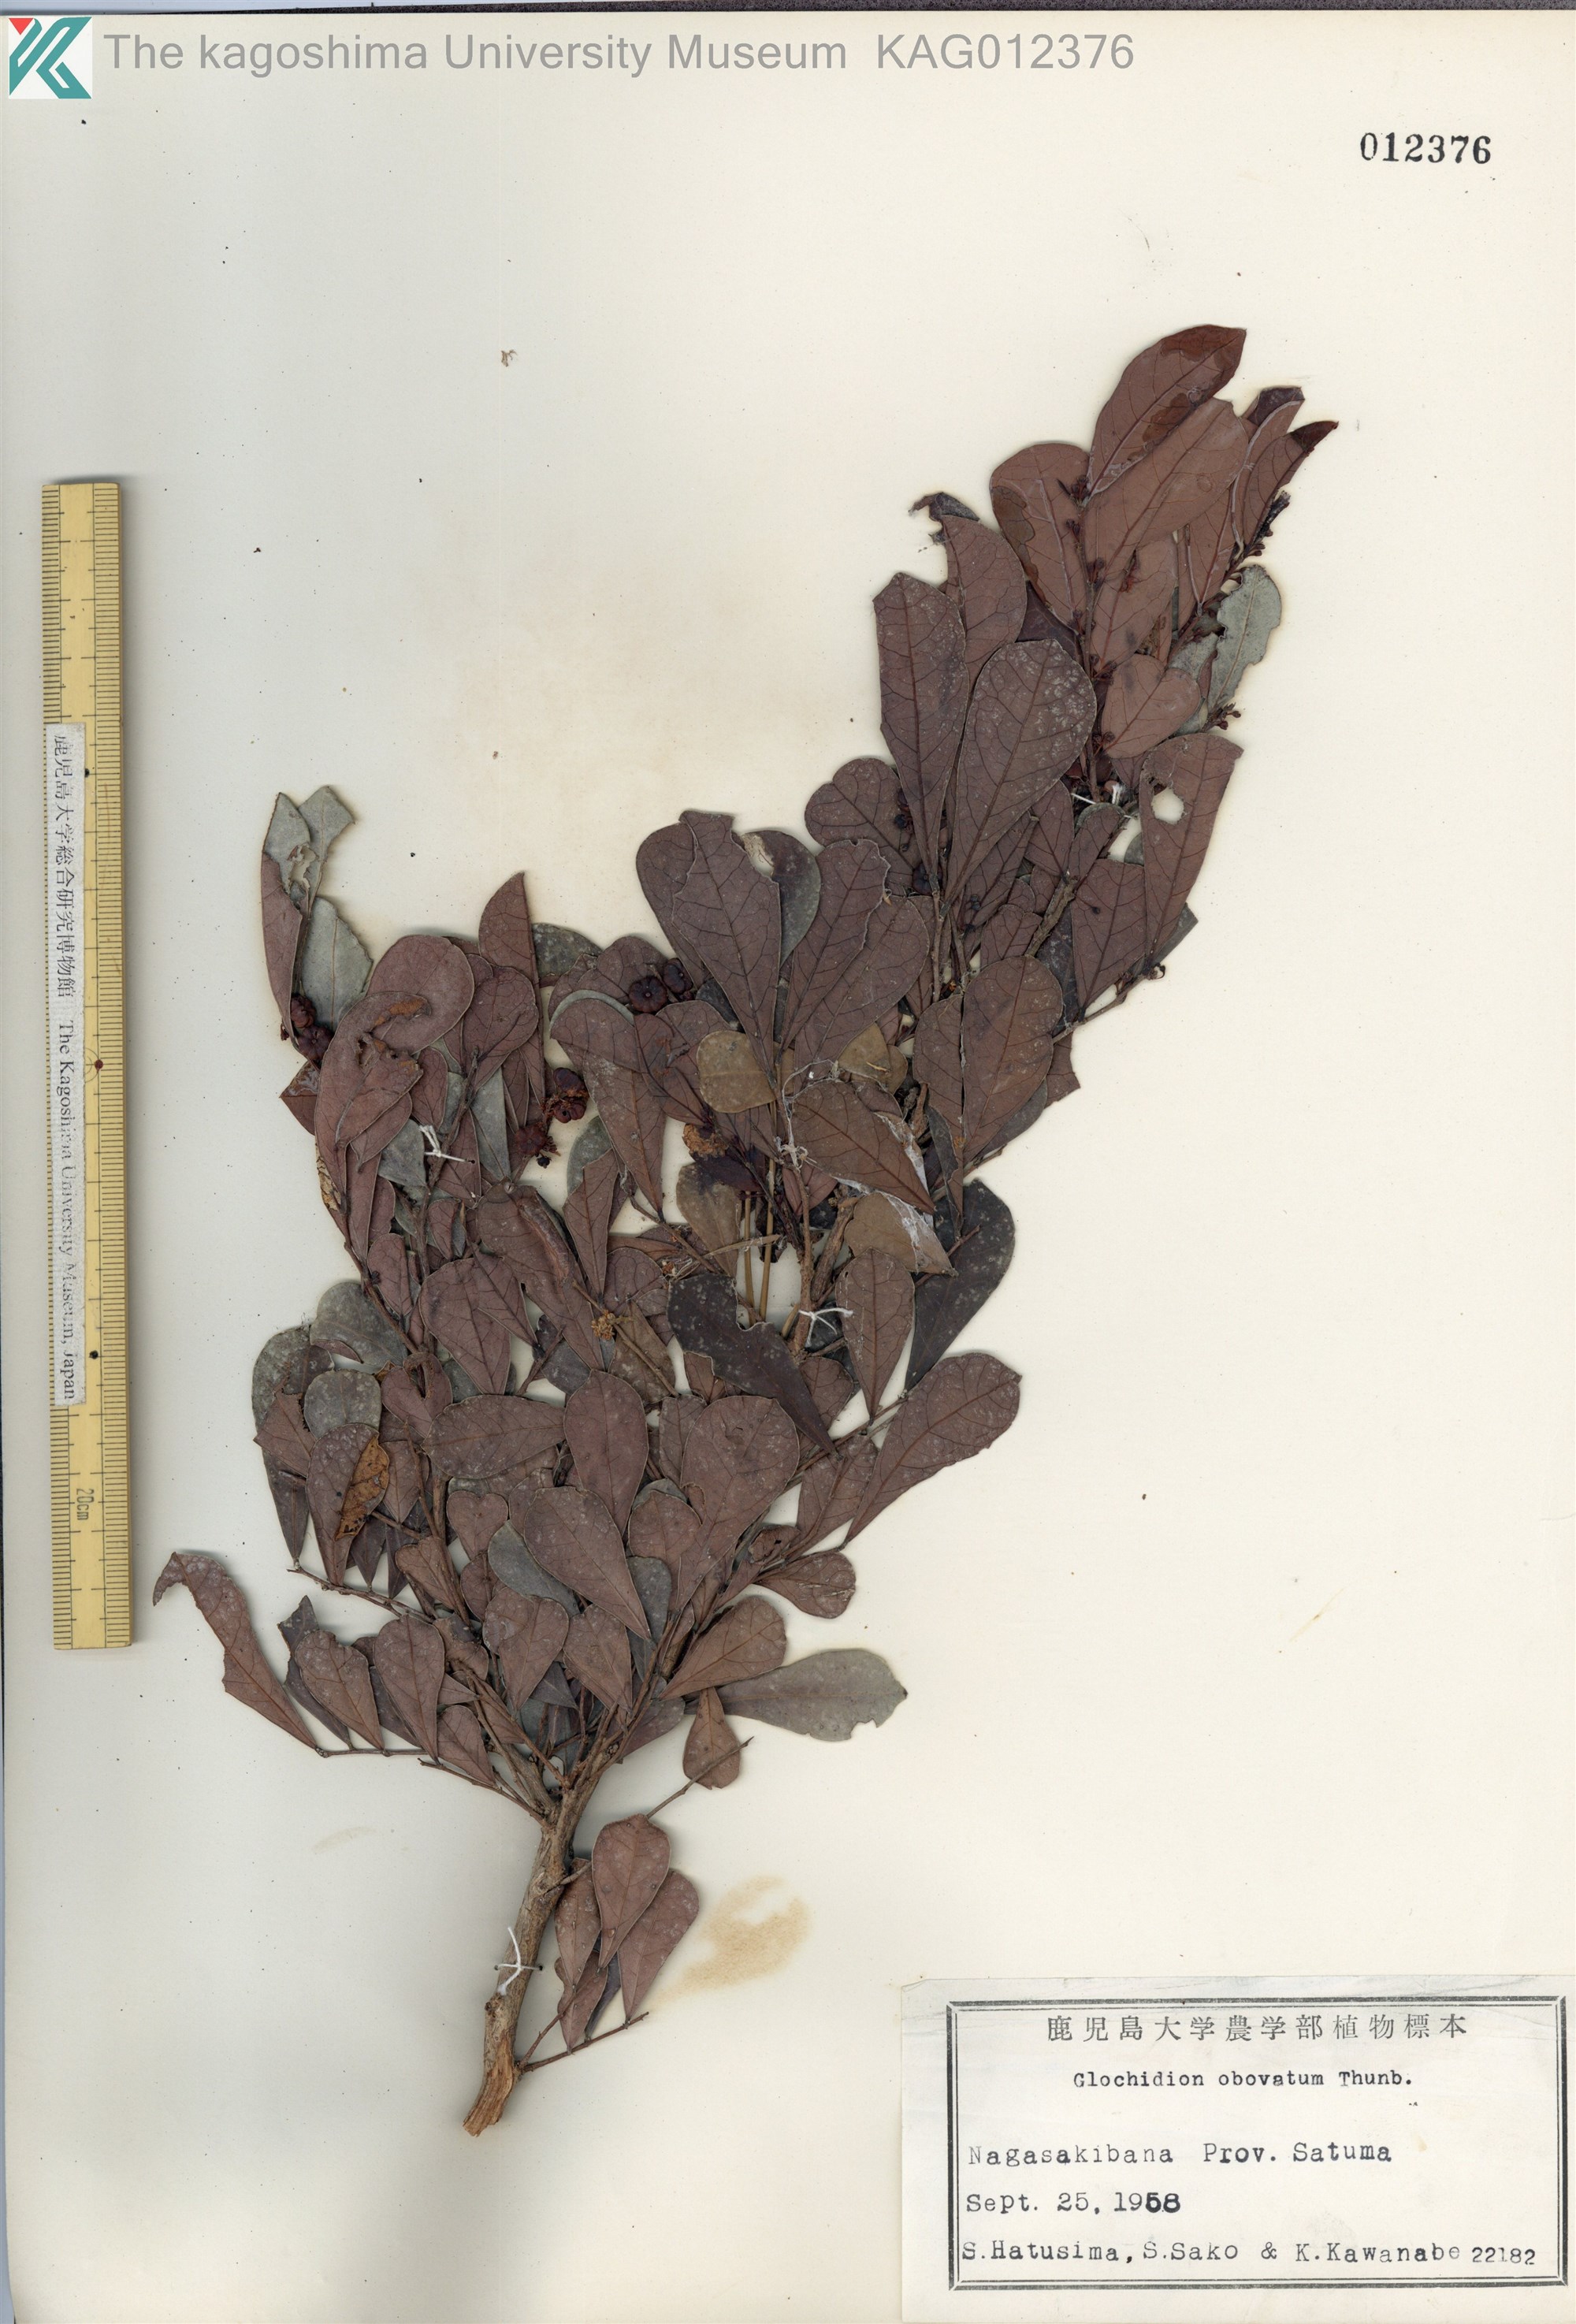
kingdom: Plantae
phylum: Tracheophyta
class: Magnoliopsida
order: Malpighiales
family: Phyllanthaceae
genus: Glochidion
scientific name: Glochidion obovatum
